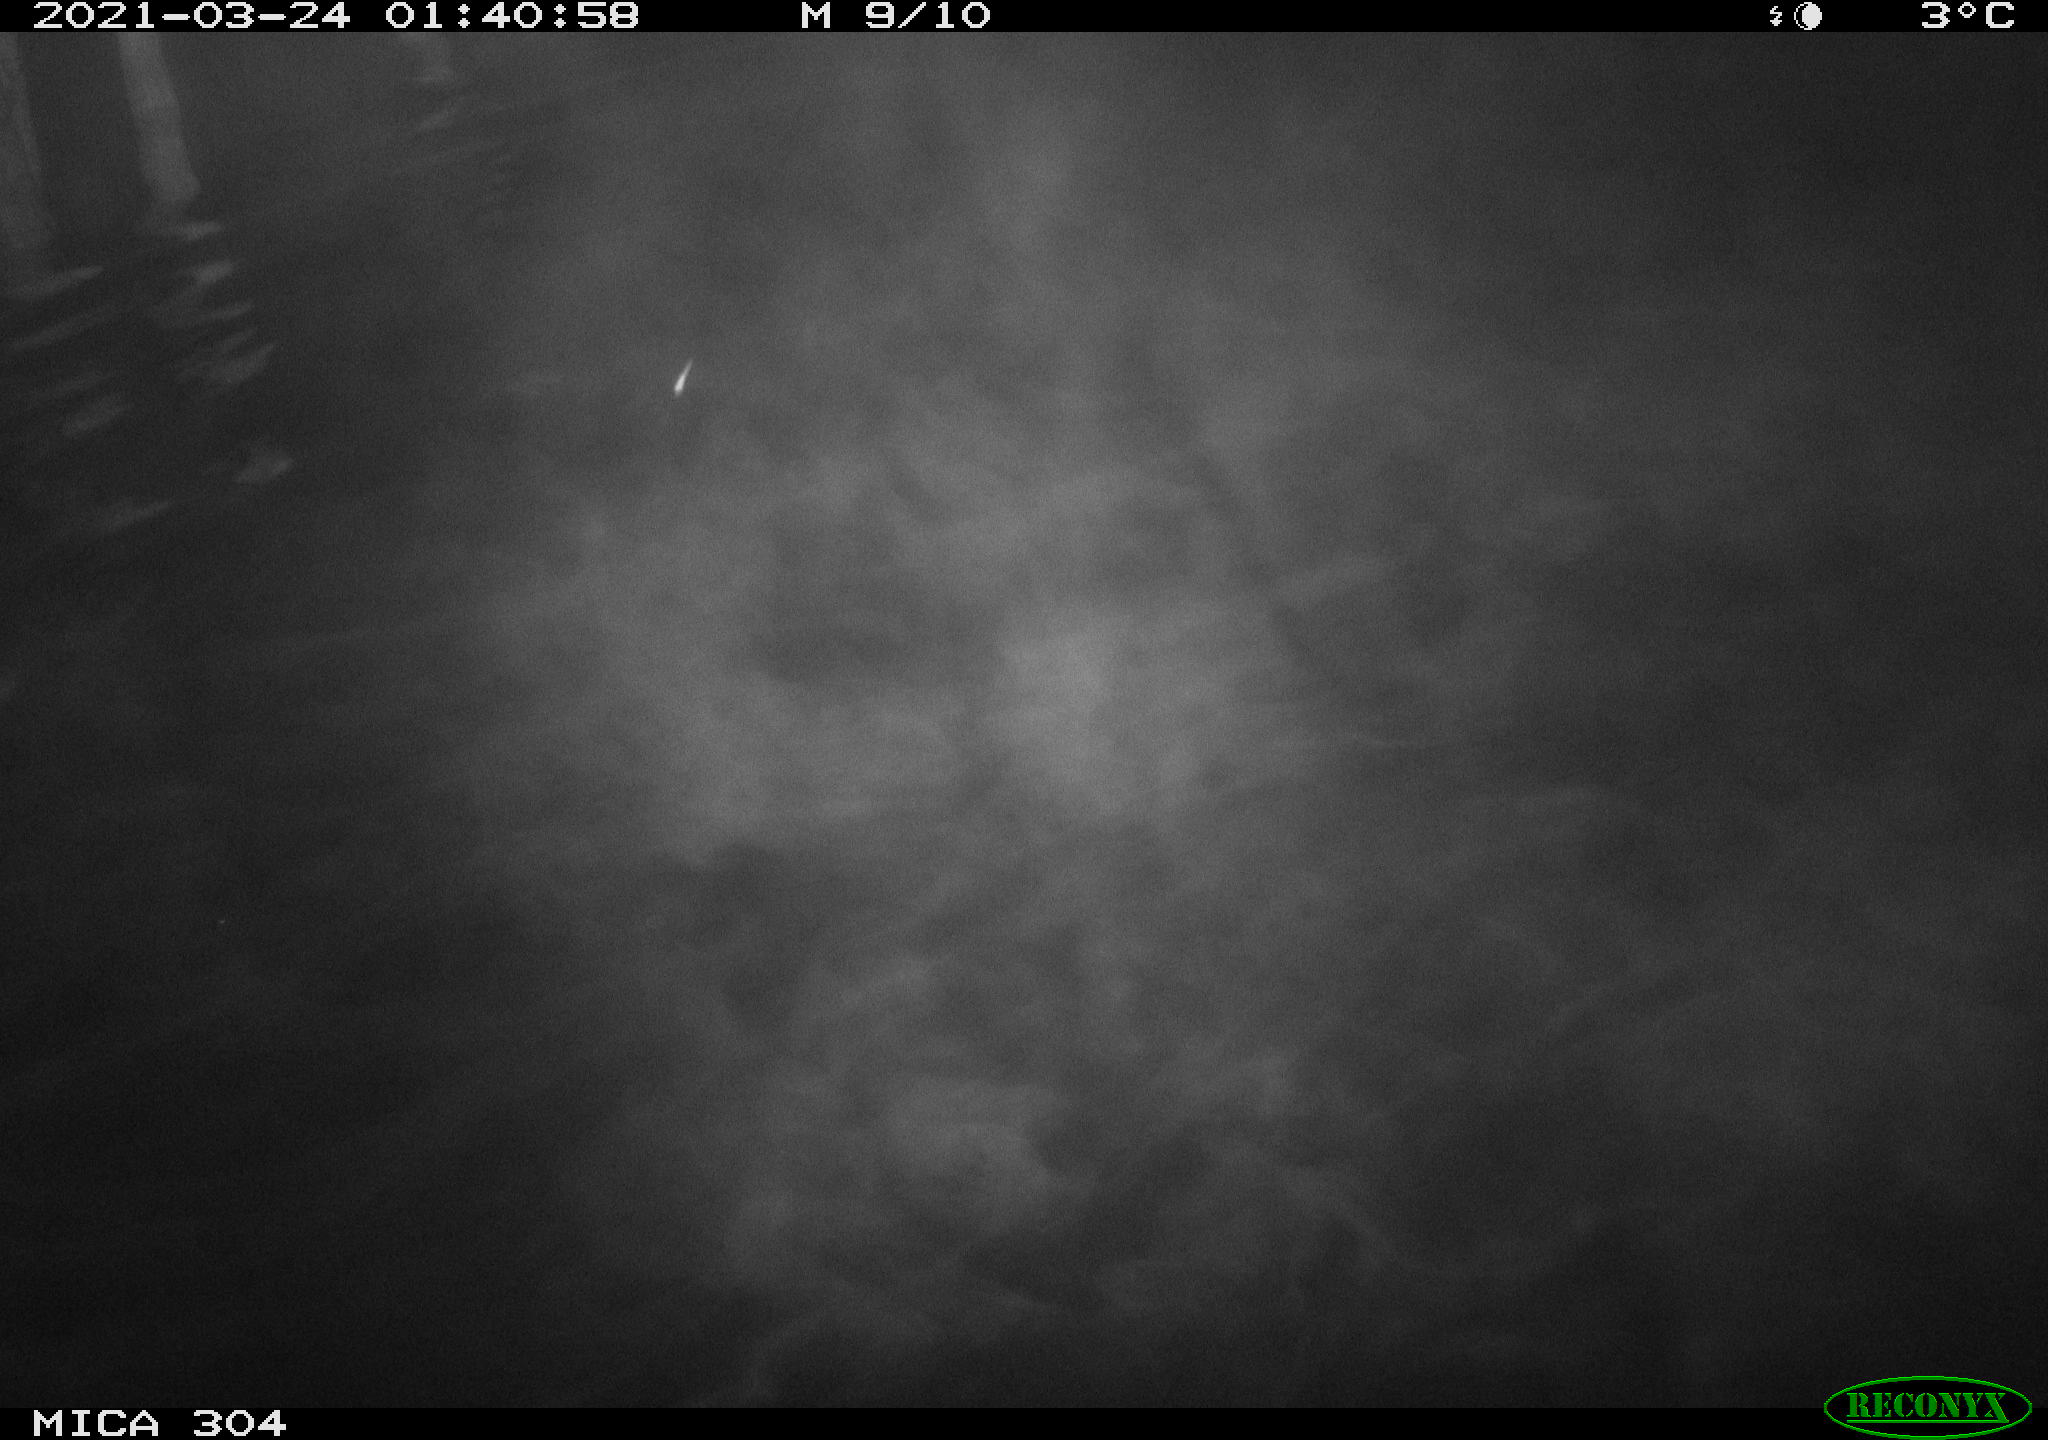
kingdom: Animalia
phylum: Chordata
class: Aves
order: Anseriformes
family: Anatidae
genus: Anas
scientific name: Anas platyrhynchos
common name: Mallard
